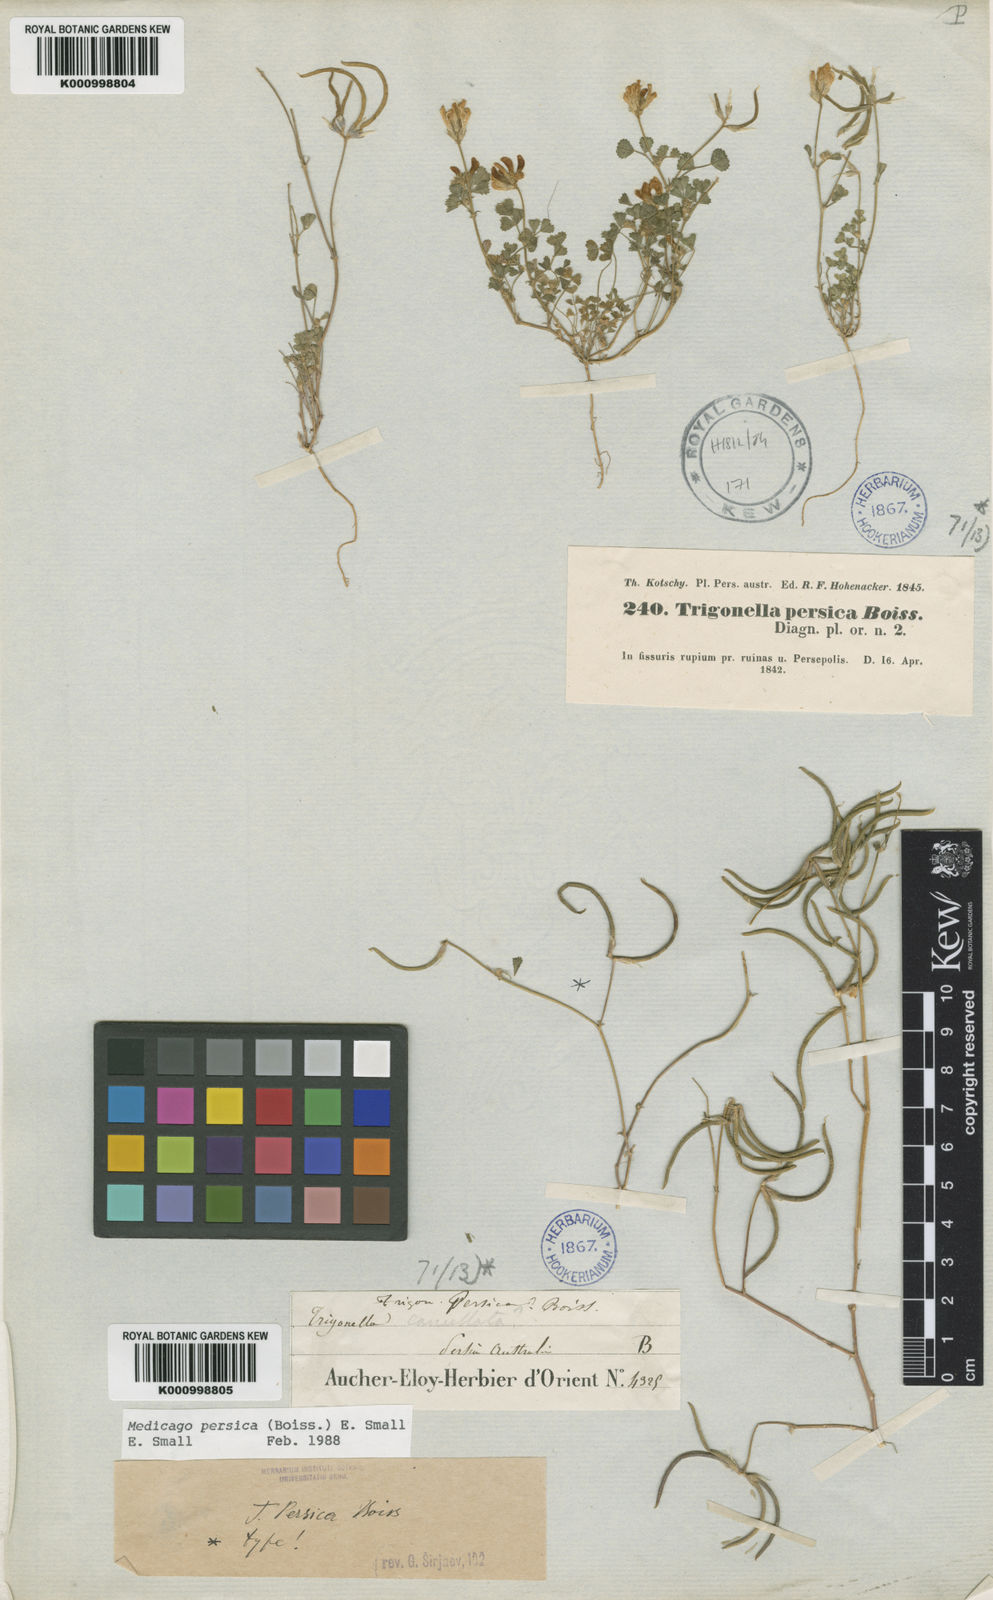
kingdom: Plantae
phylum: Tracheophyta
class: Magnoliopsida
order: Fabales
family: Fabaceae
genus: Medicago
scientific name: Medicago persica
